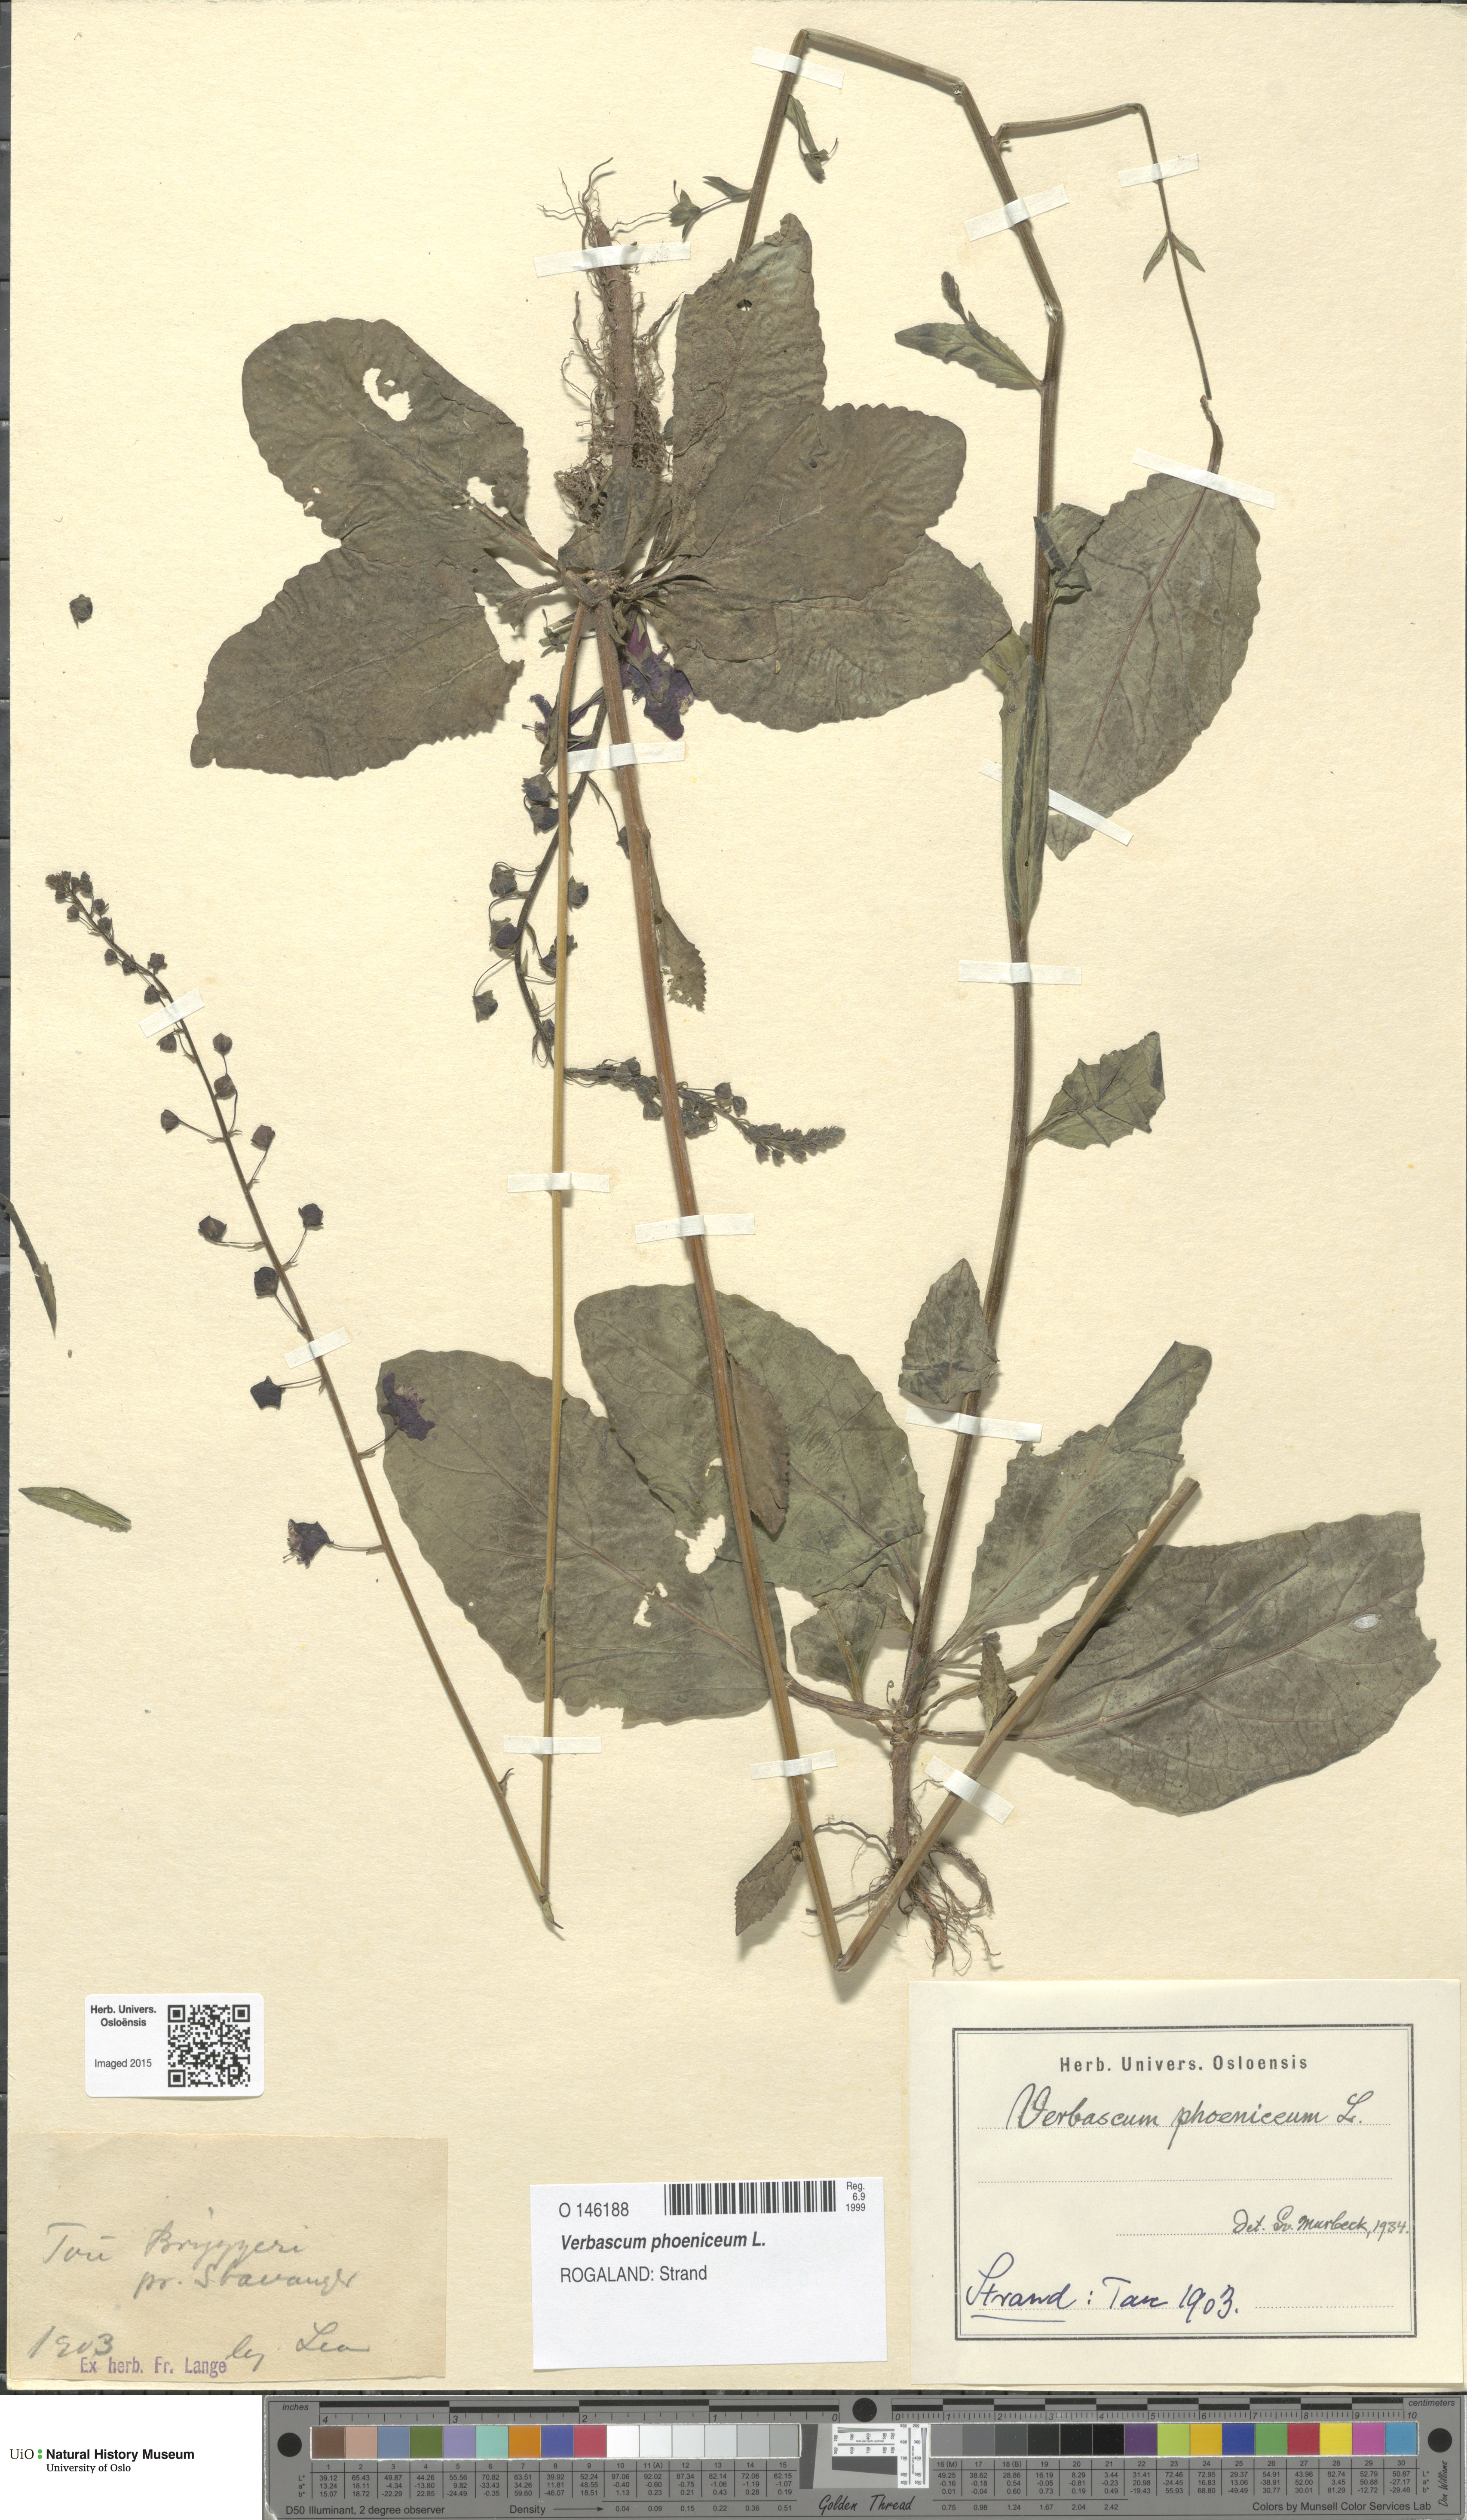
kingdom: Plantae
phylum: Tracheophyta
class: Magnoliopsida
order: Lamiales
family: Scrophulariaceae
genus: Verbascum
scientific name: Verbascum phoeniceum
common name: Purple mullein
